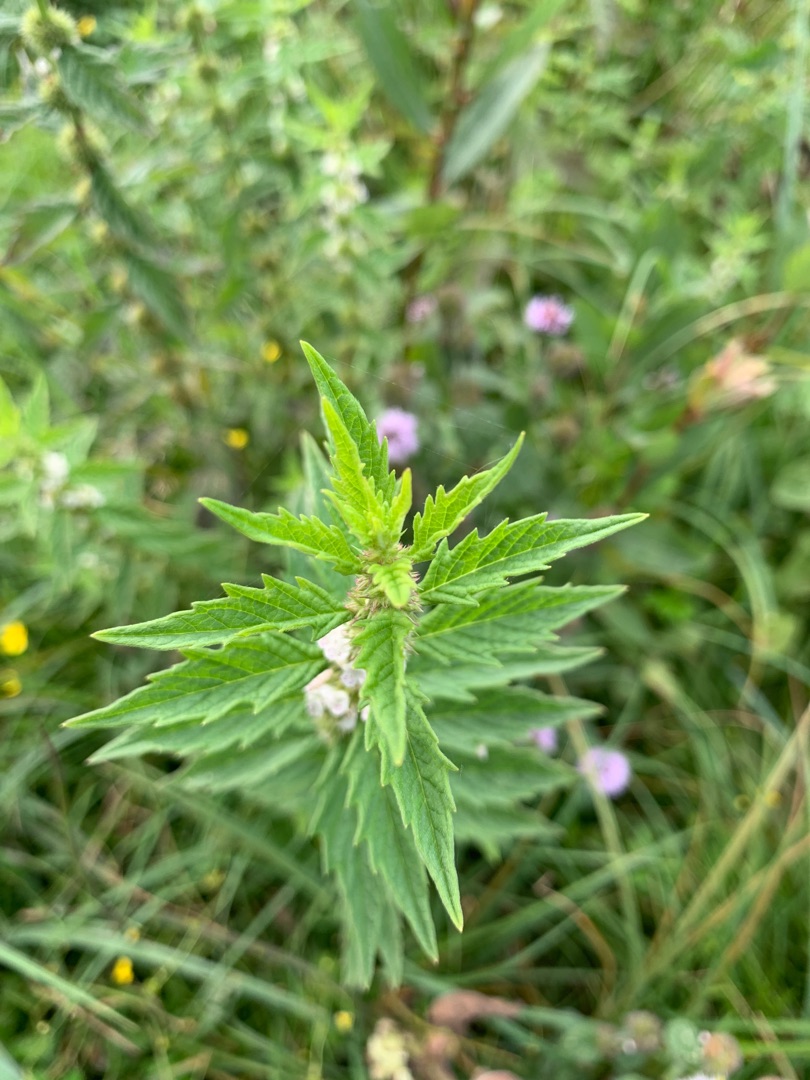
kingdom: Plantae
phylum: Tracheophyta
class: Magnoliopsida
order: Lamiales
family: Lamiaceae
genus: Lycopus
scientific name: Lycopus europaeus
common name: Sværtevæld
